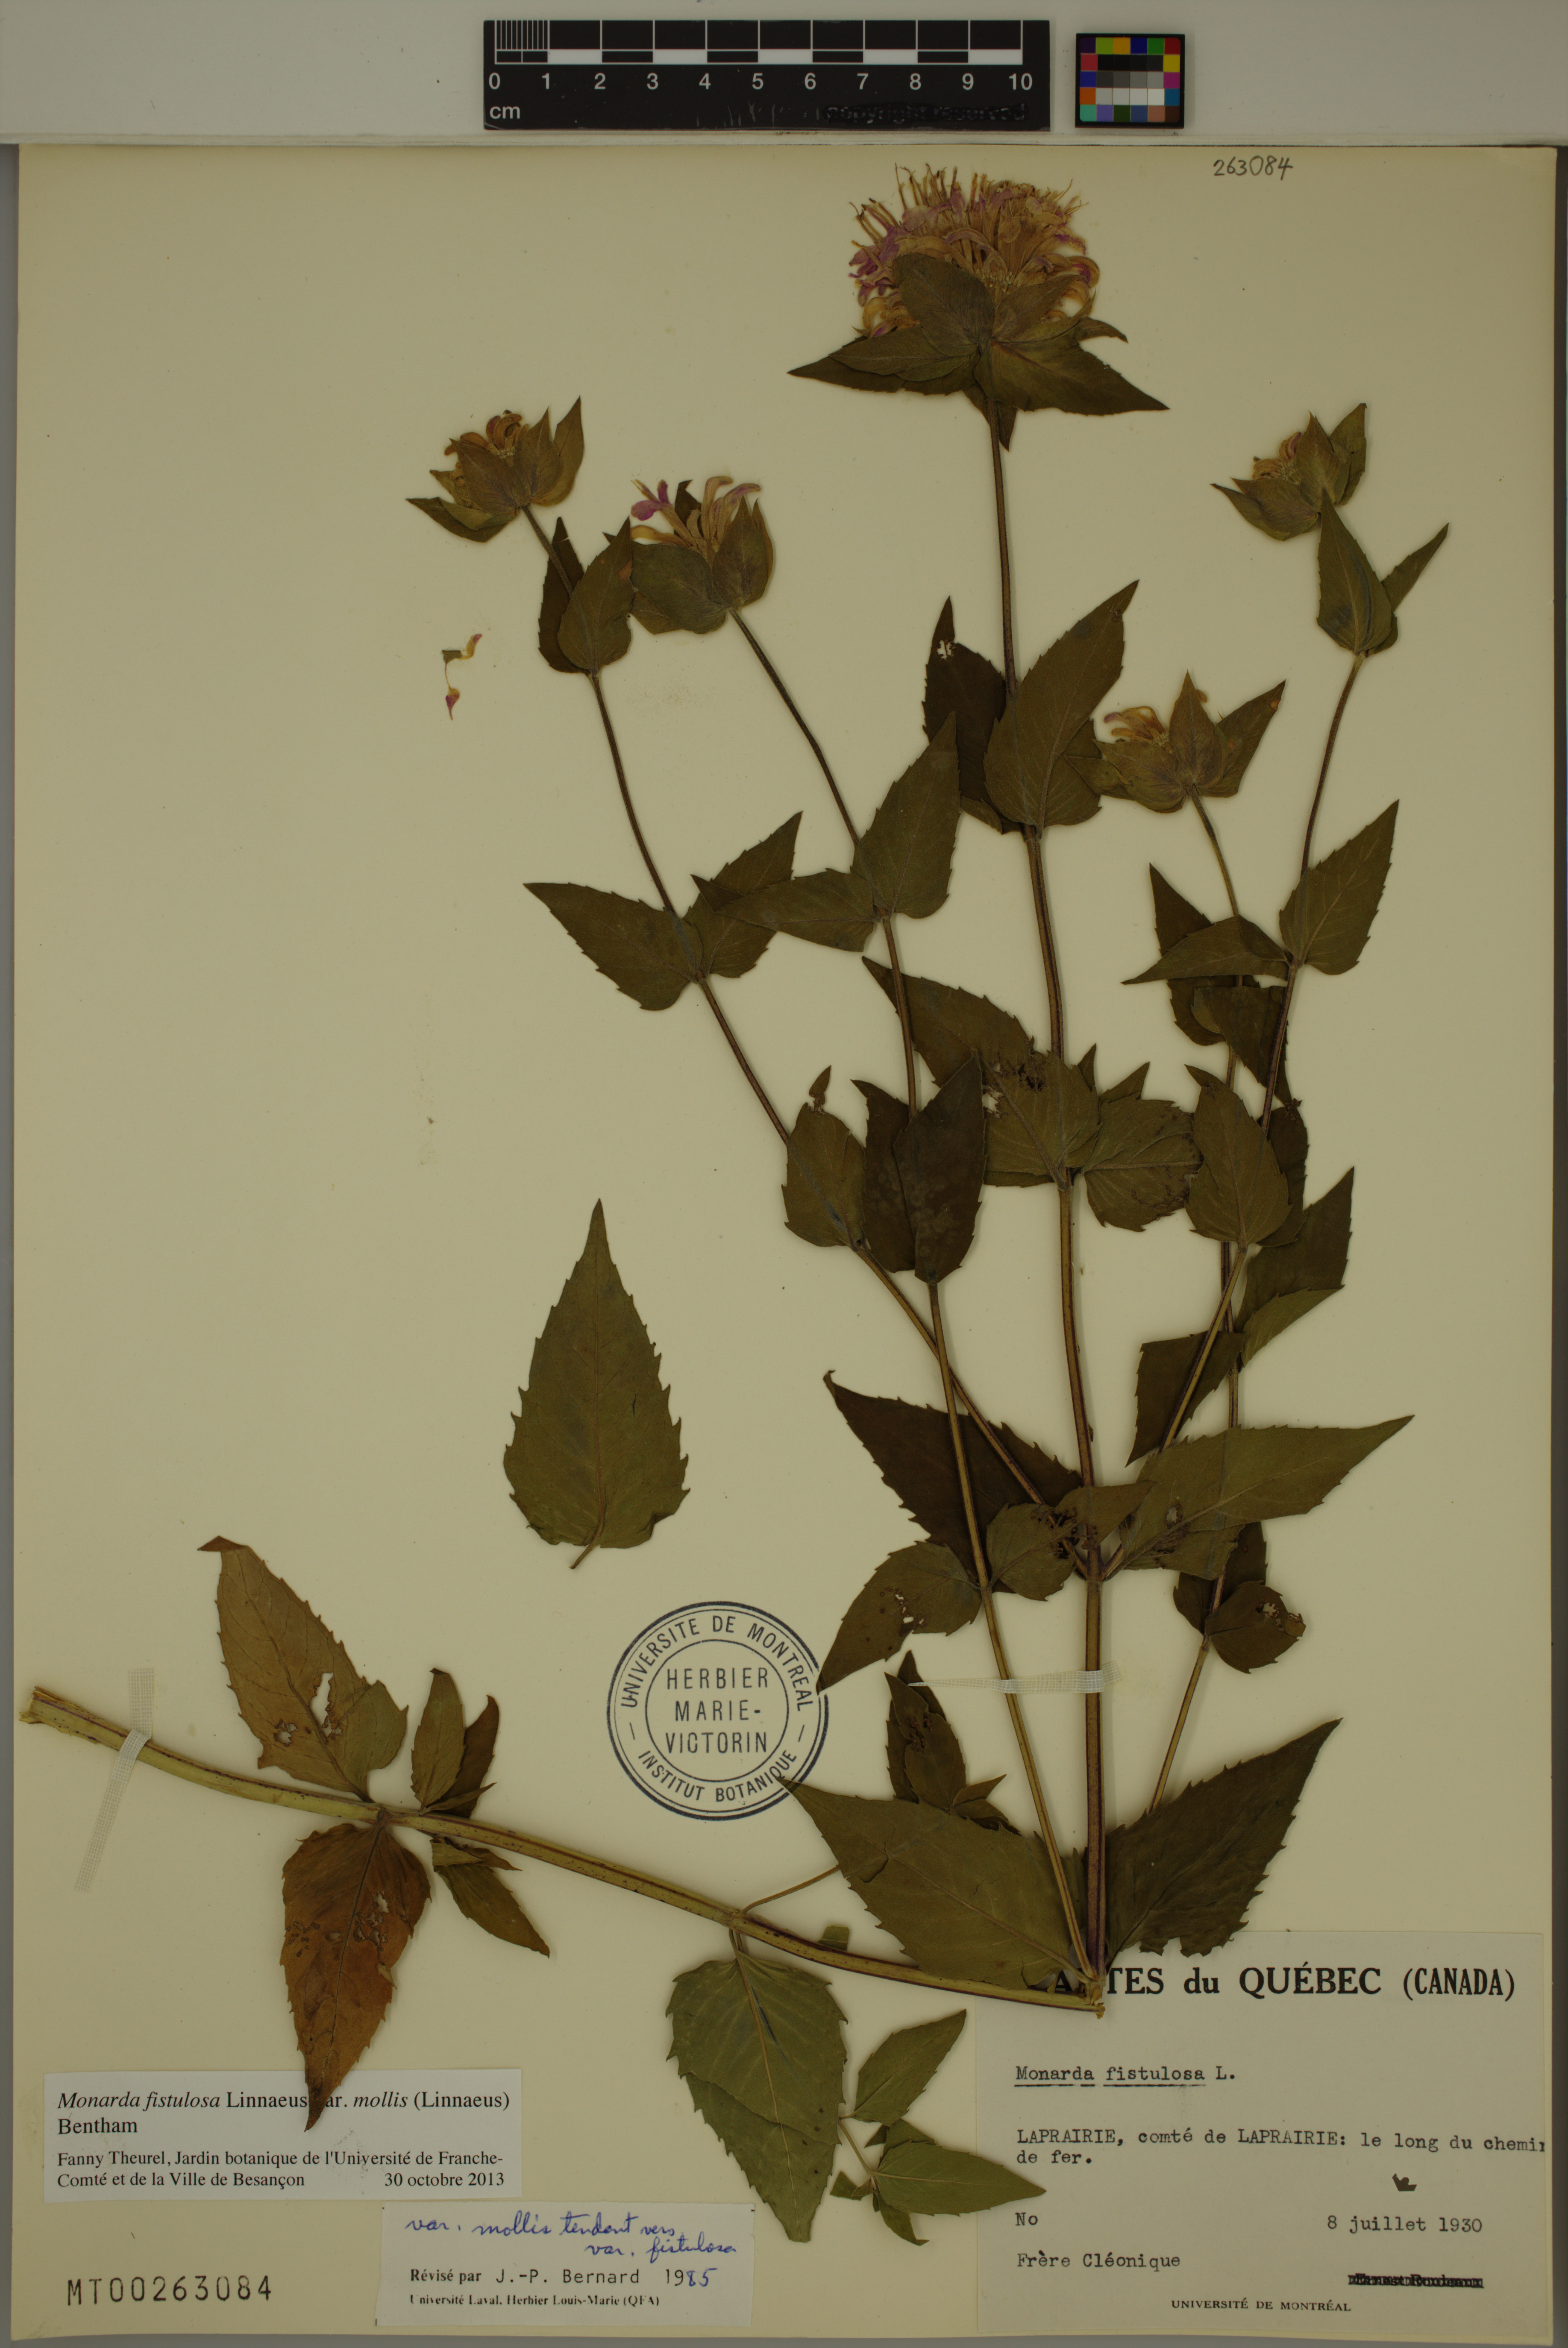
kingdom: Plantae
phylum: Tracheophyta
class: Magnoliopsida
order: Lamiales
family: Lamiaceae
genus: Monarda
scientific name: Monarda fistulosa
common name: Purple beebalm
